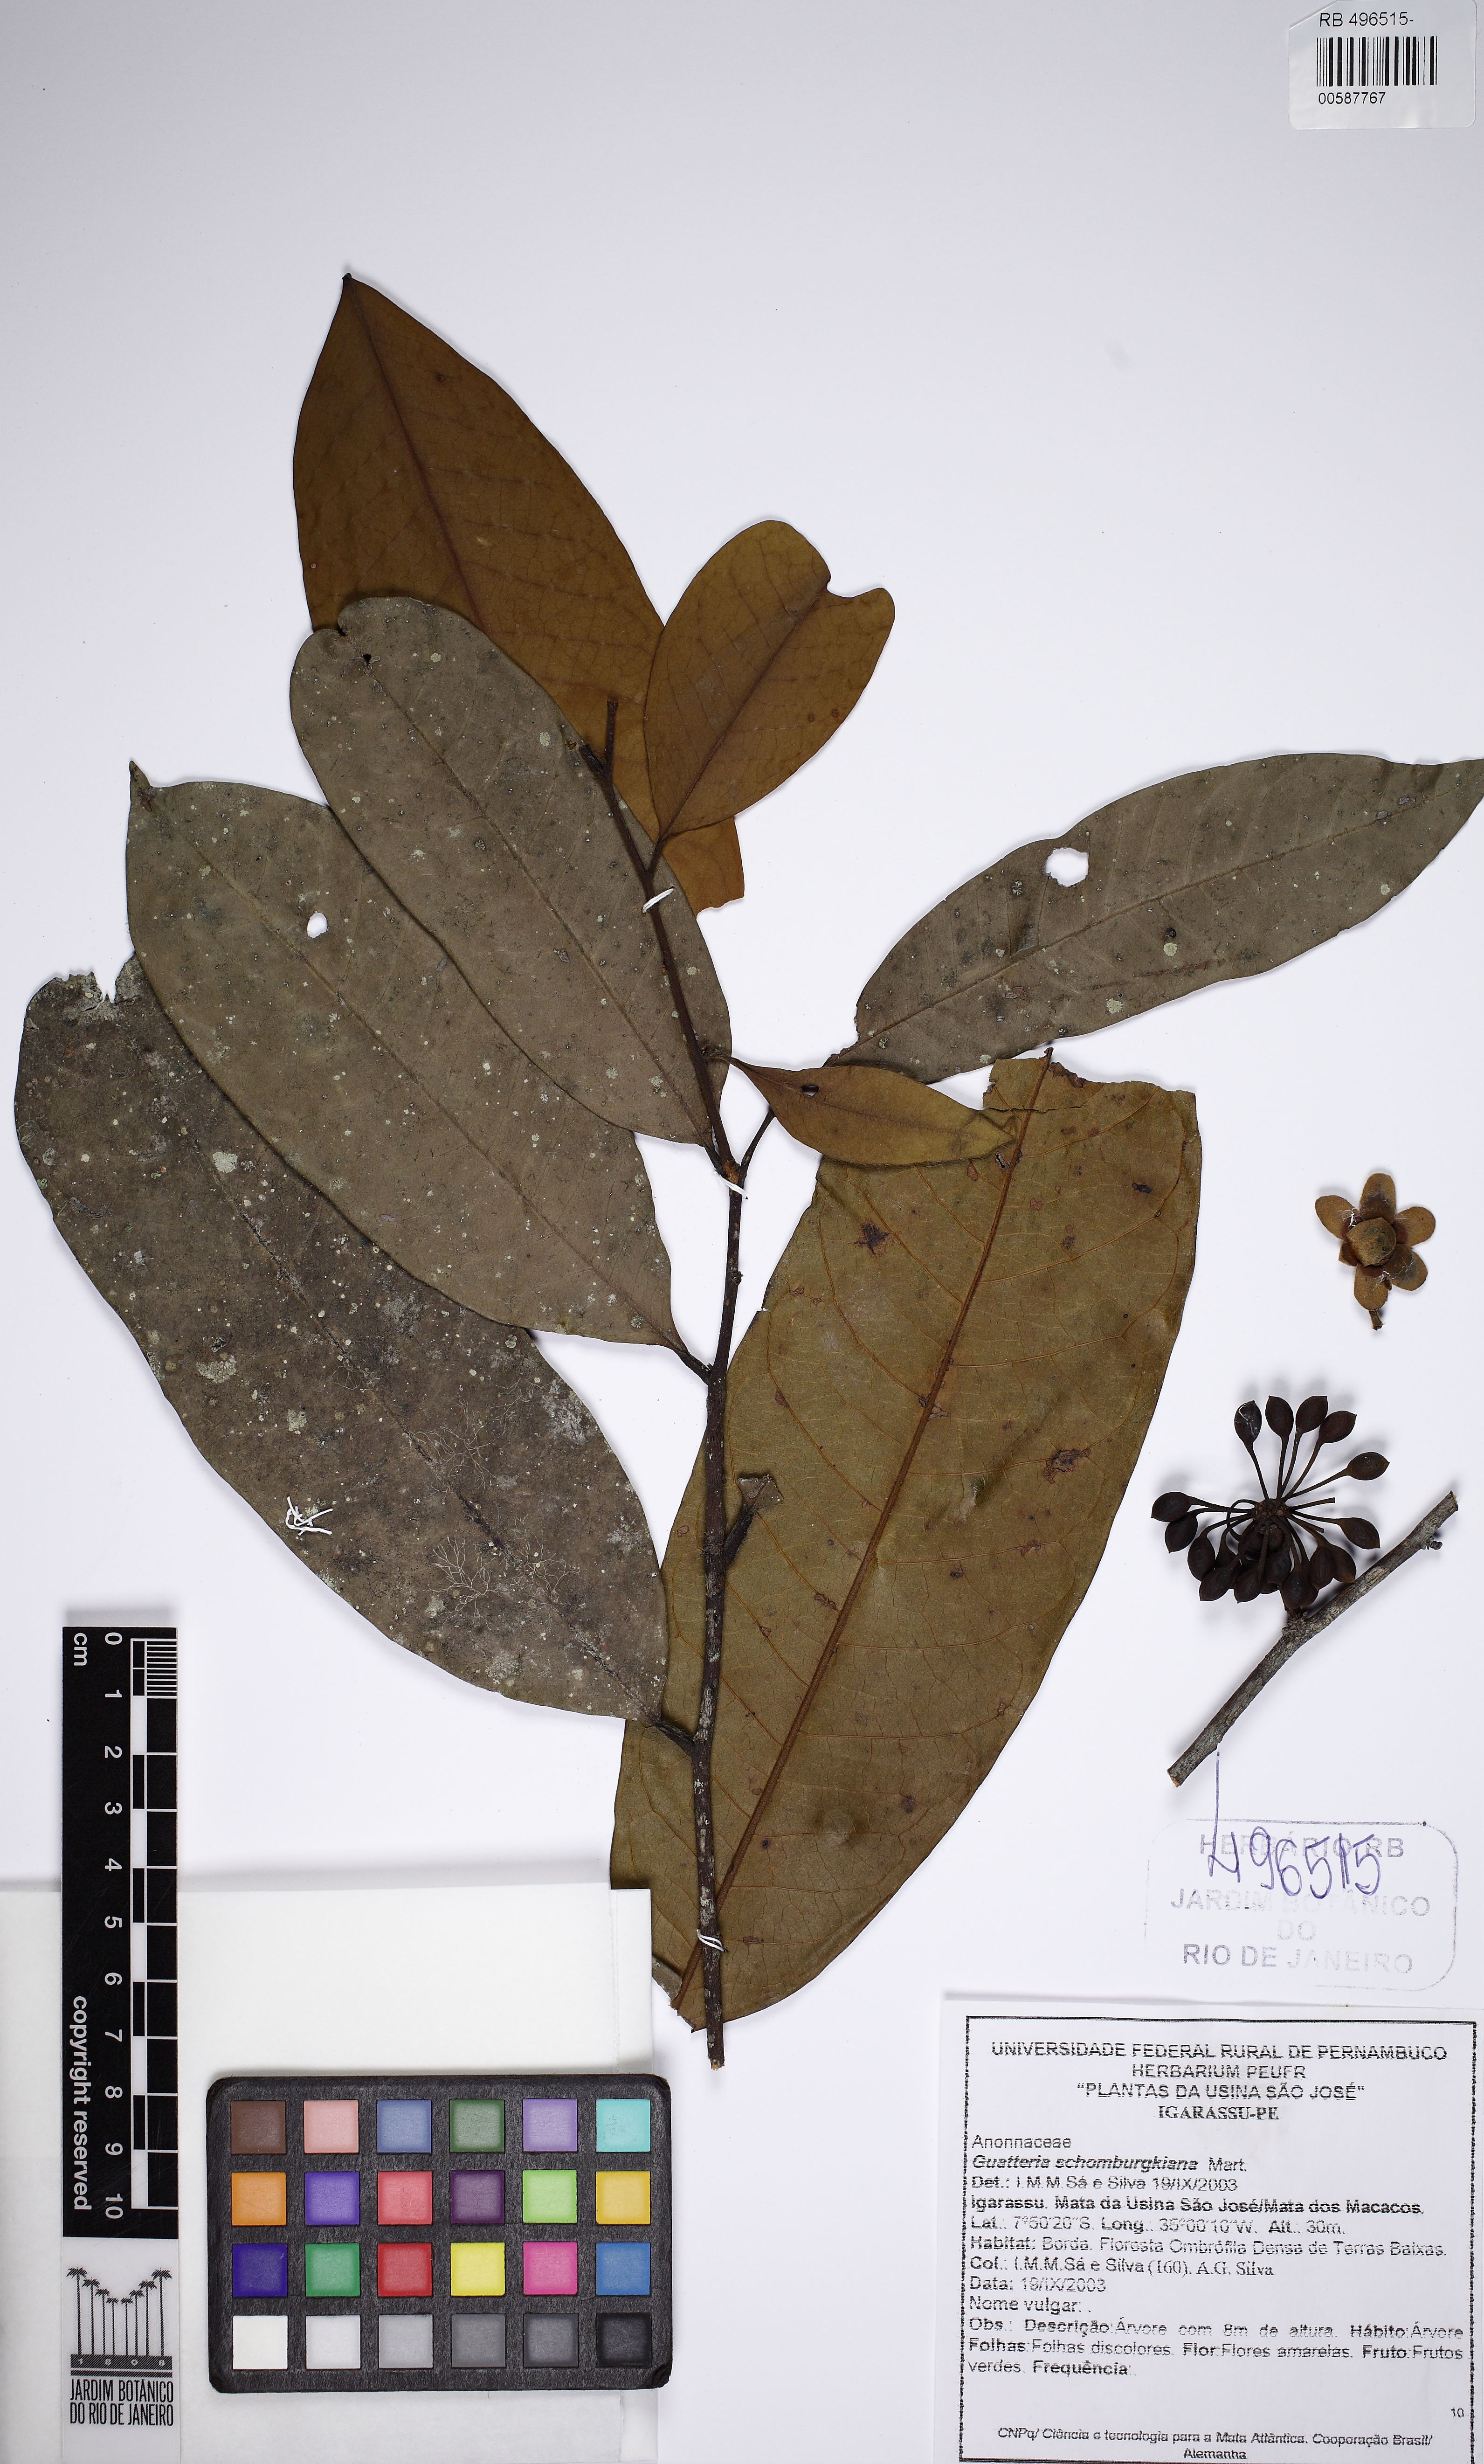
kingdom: Plantae
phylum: Tracheophyta
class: Magnoliopsida
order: Magnoliales
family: Annonaceae
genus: Guatteria
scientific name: Guatteria schomburgkiana
